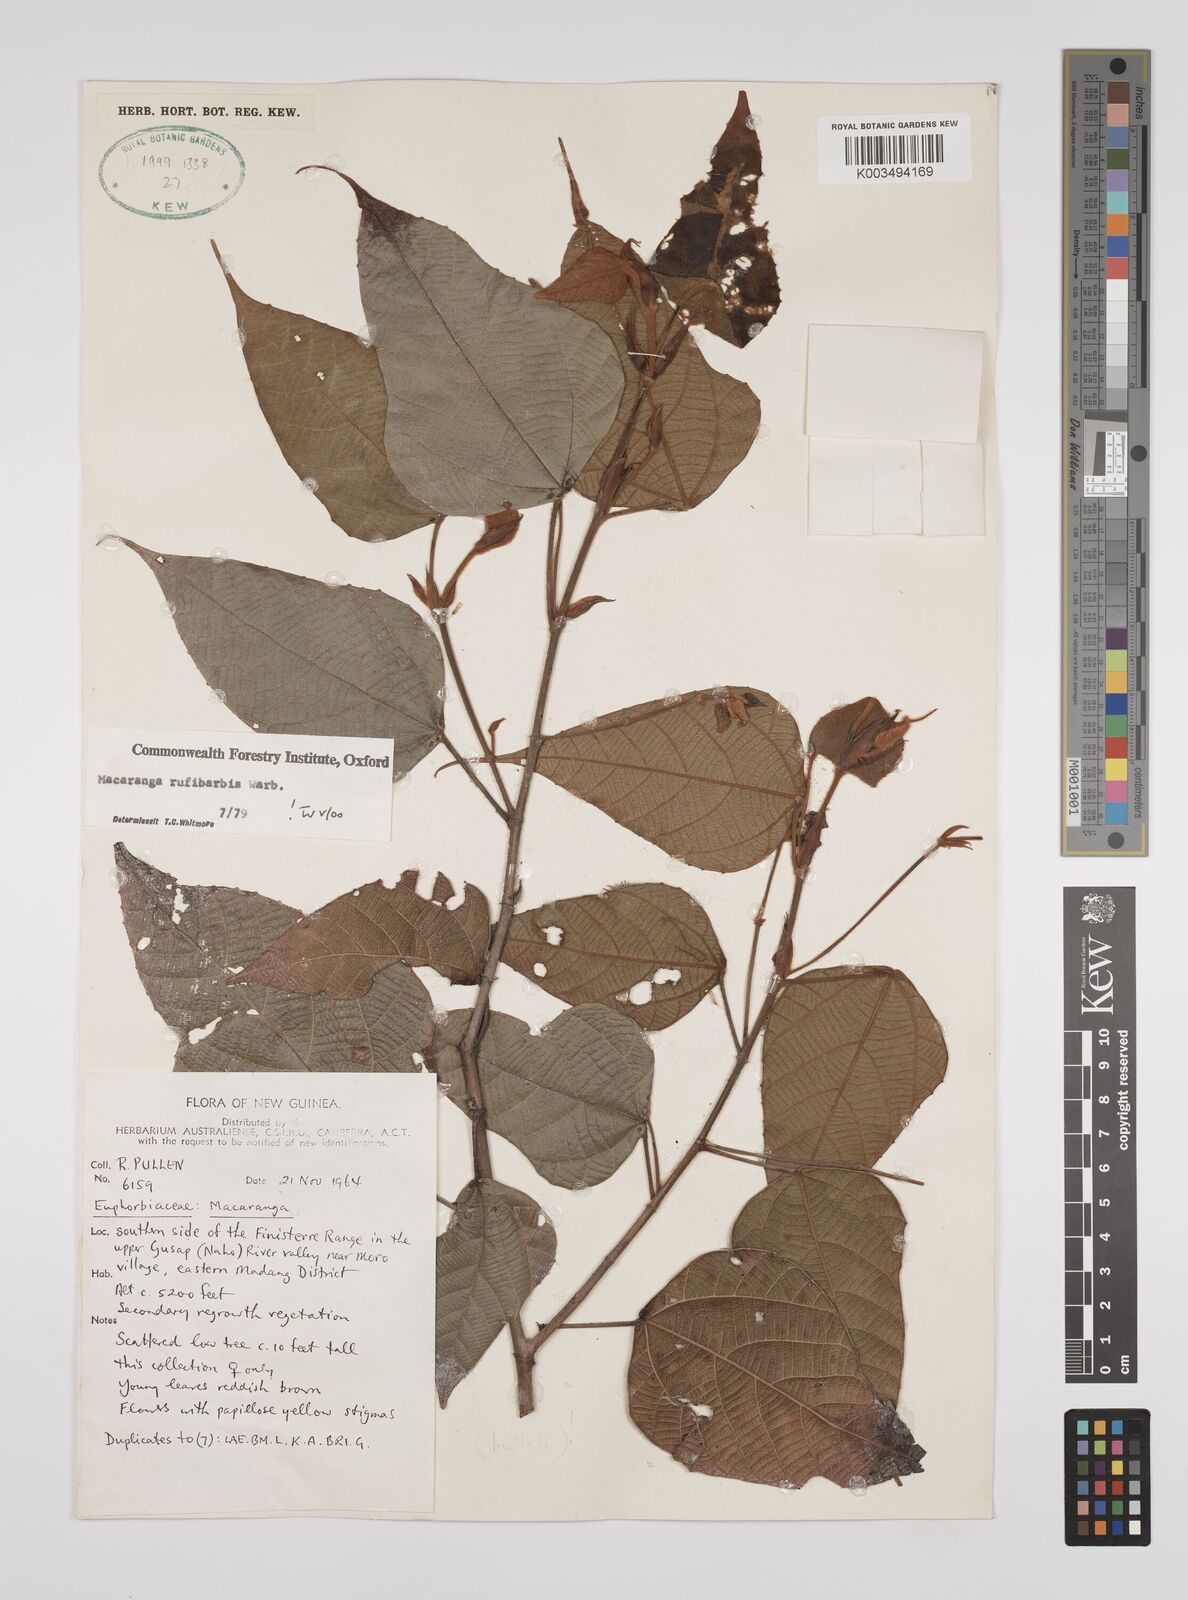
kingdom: Plantae
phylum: Tracheophyta
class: Magnoliopsida
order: Malpighiales
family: Euphorbiaceae
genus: Macaranga
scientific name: Macaranga rufibarbis
